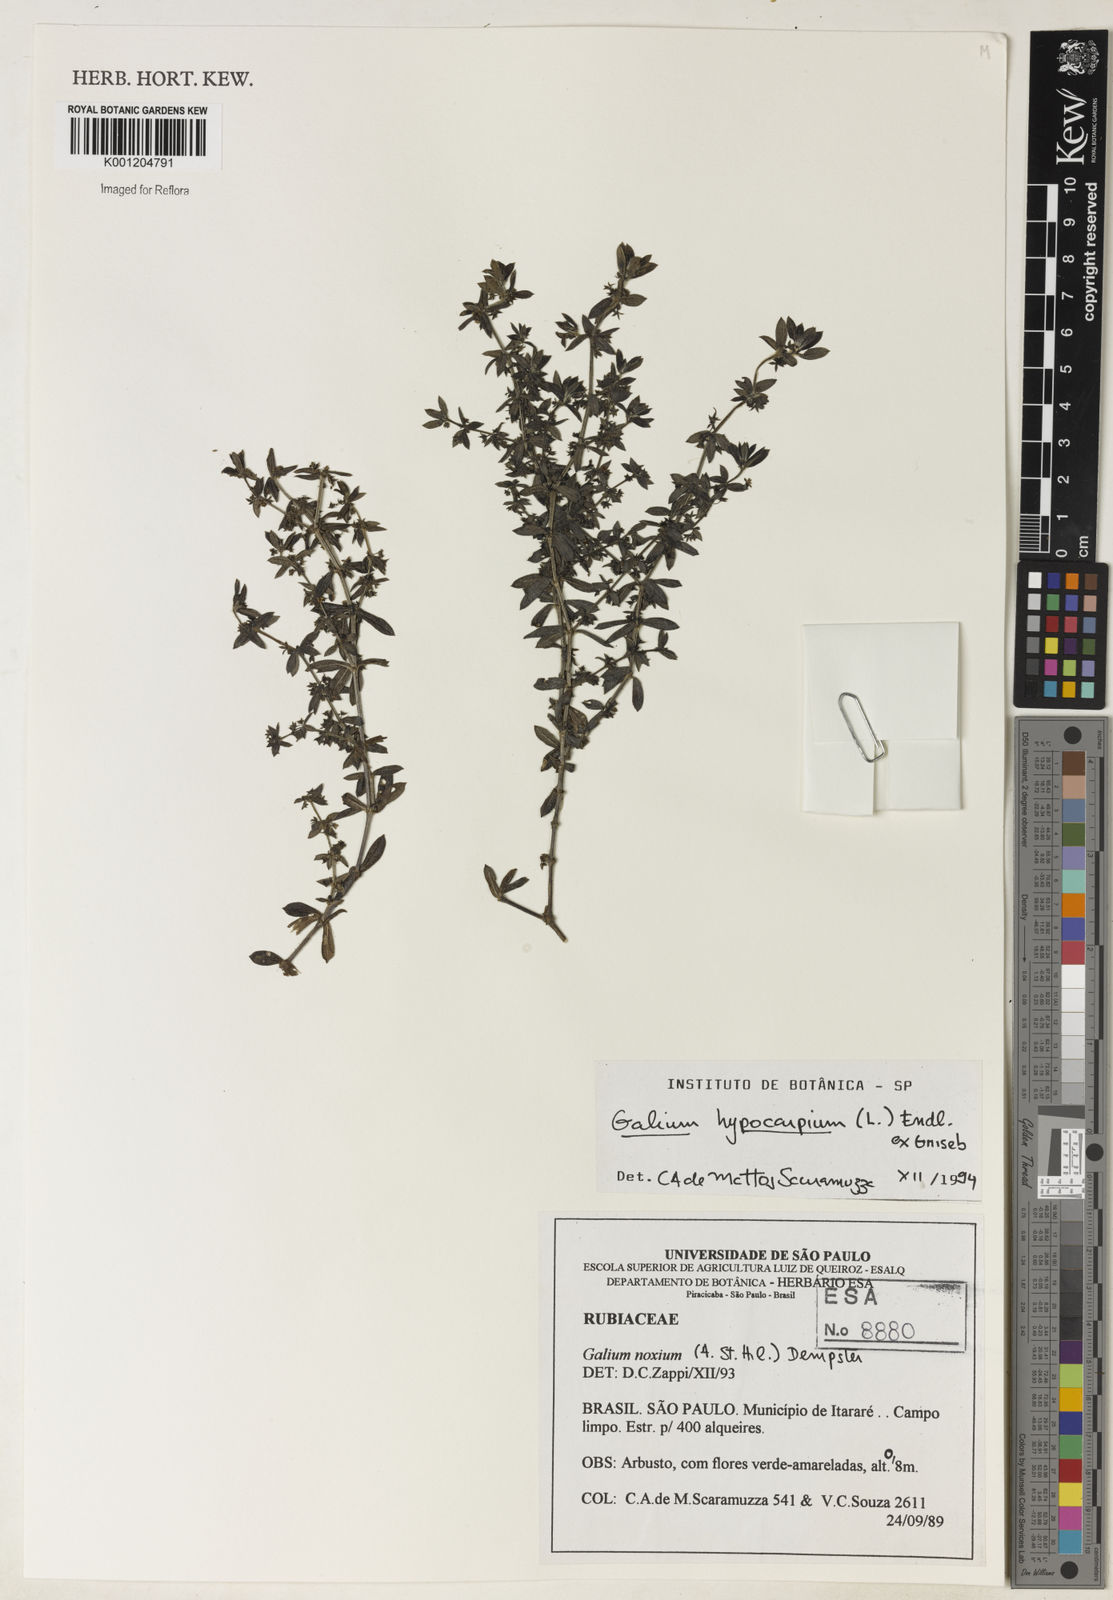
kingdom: Plantae
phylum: Tracheophyta
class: Magnoliopsida
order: Gentianales
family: Rubiaceae
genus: Galium
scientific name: Galium hypocarpium
